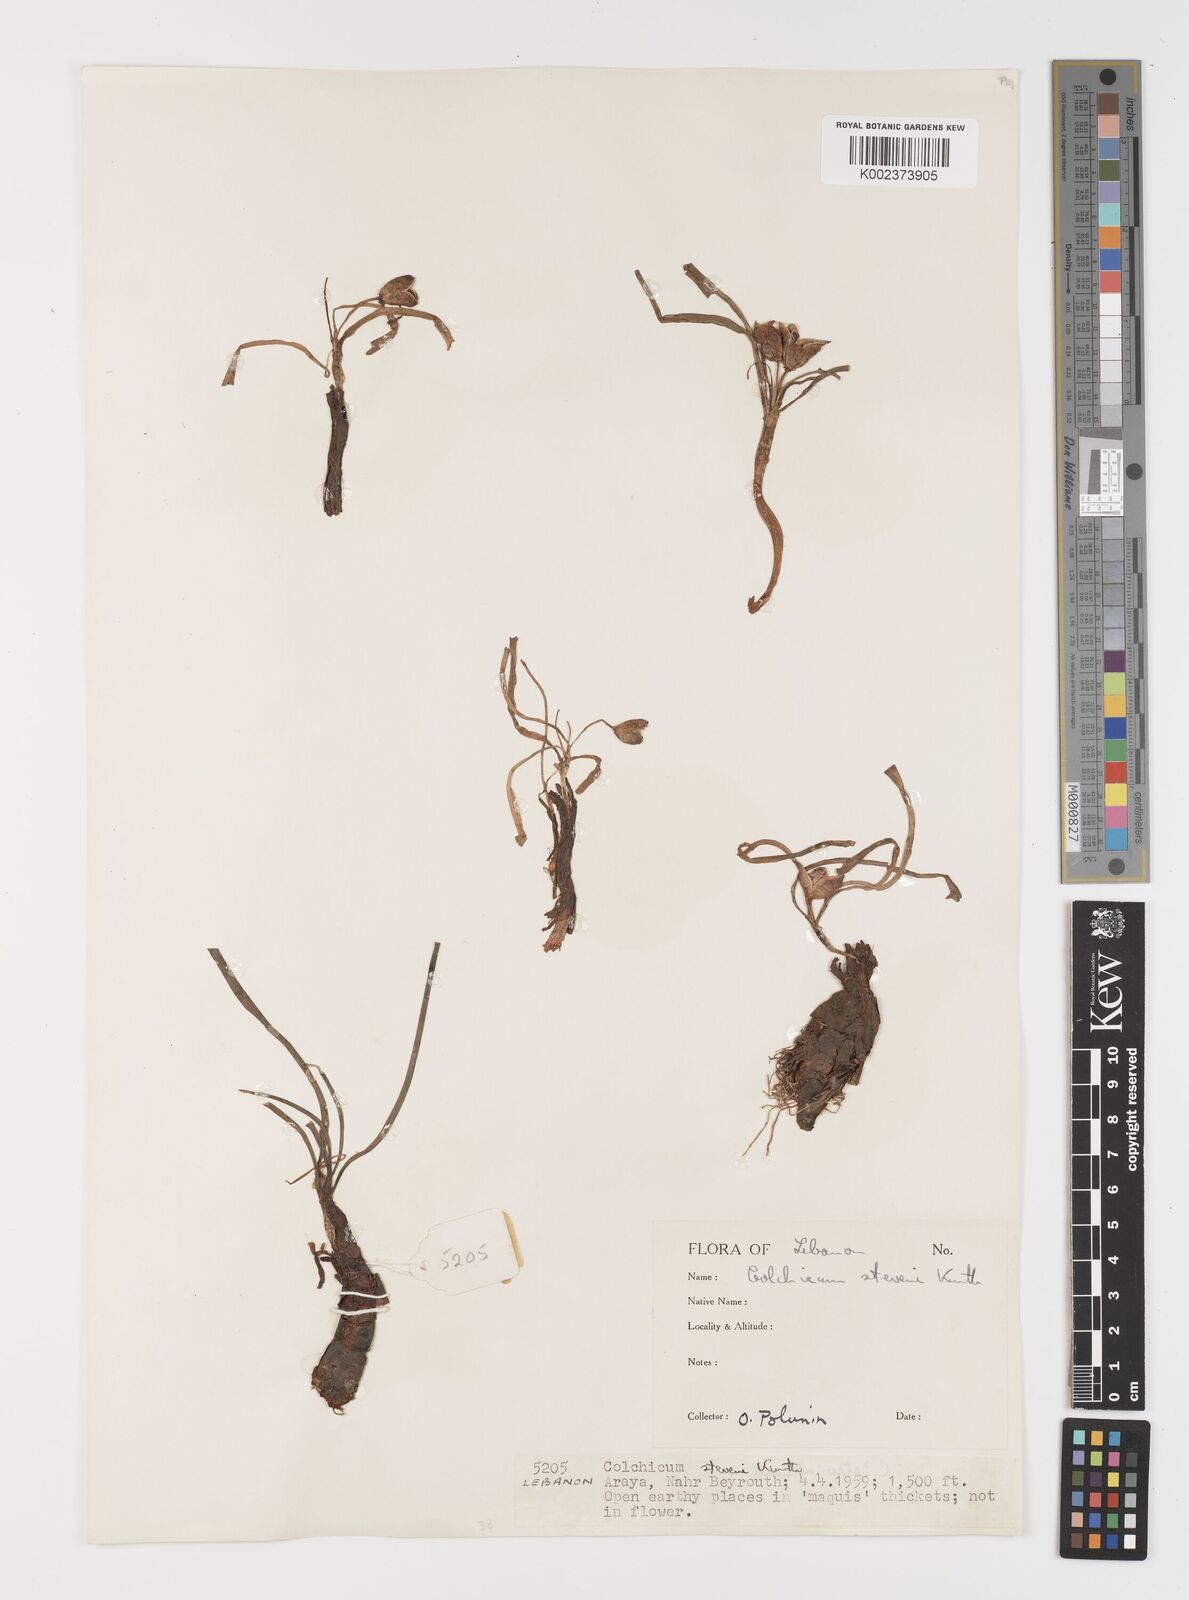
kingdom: Plantae
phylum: Tracheophyta
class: Liliopsida
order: Liliales
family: Colchicaceae
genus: Colchicum
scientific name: Colchicum stevenii
